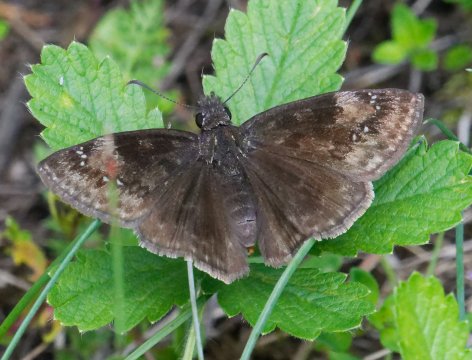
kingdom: Animalia
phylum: Arthropoda
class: Insecta
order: Lepidoptera
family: Hesperiidae
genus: Gesta
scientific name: Gesta
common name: Wild Indigo Duskywing
